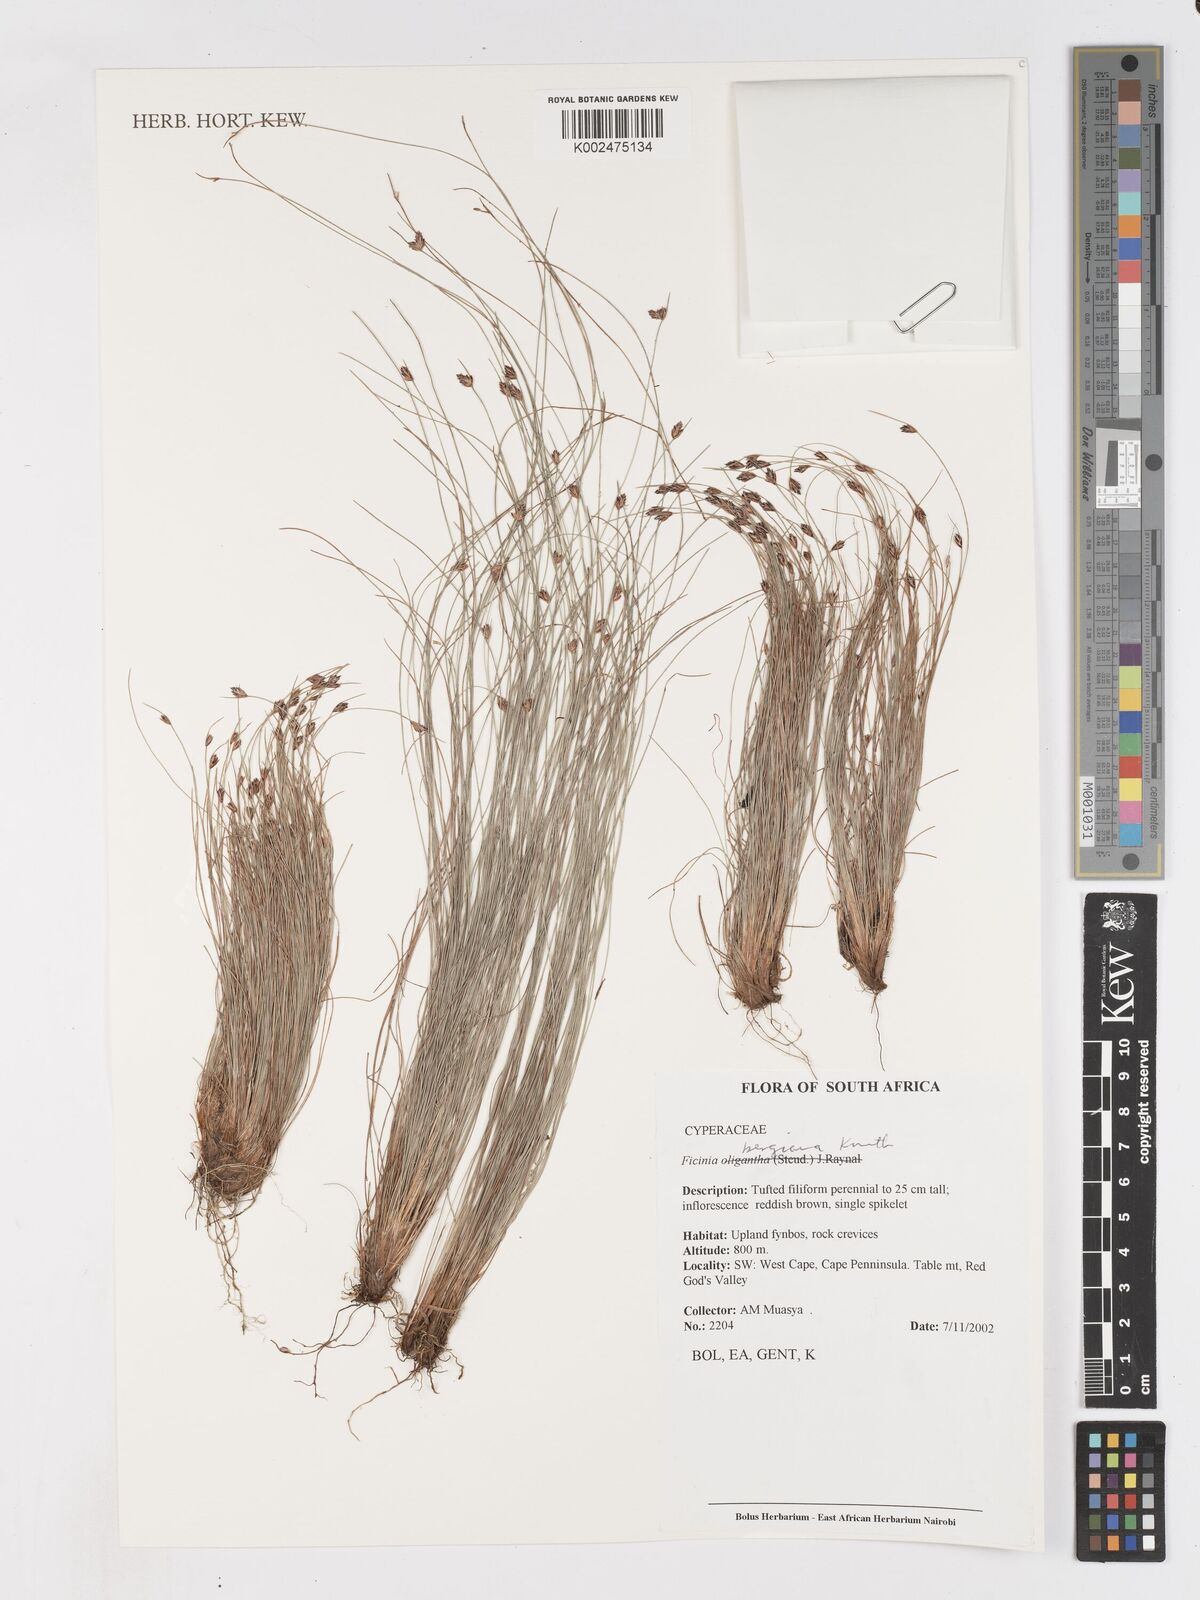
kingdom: Plantae
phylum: Tracheophyta
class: Liliopsida
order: Poales
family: Cyperaceae
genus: Ficinia
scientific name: Ficinia tristachya
